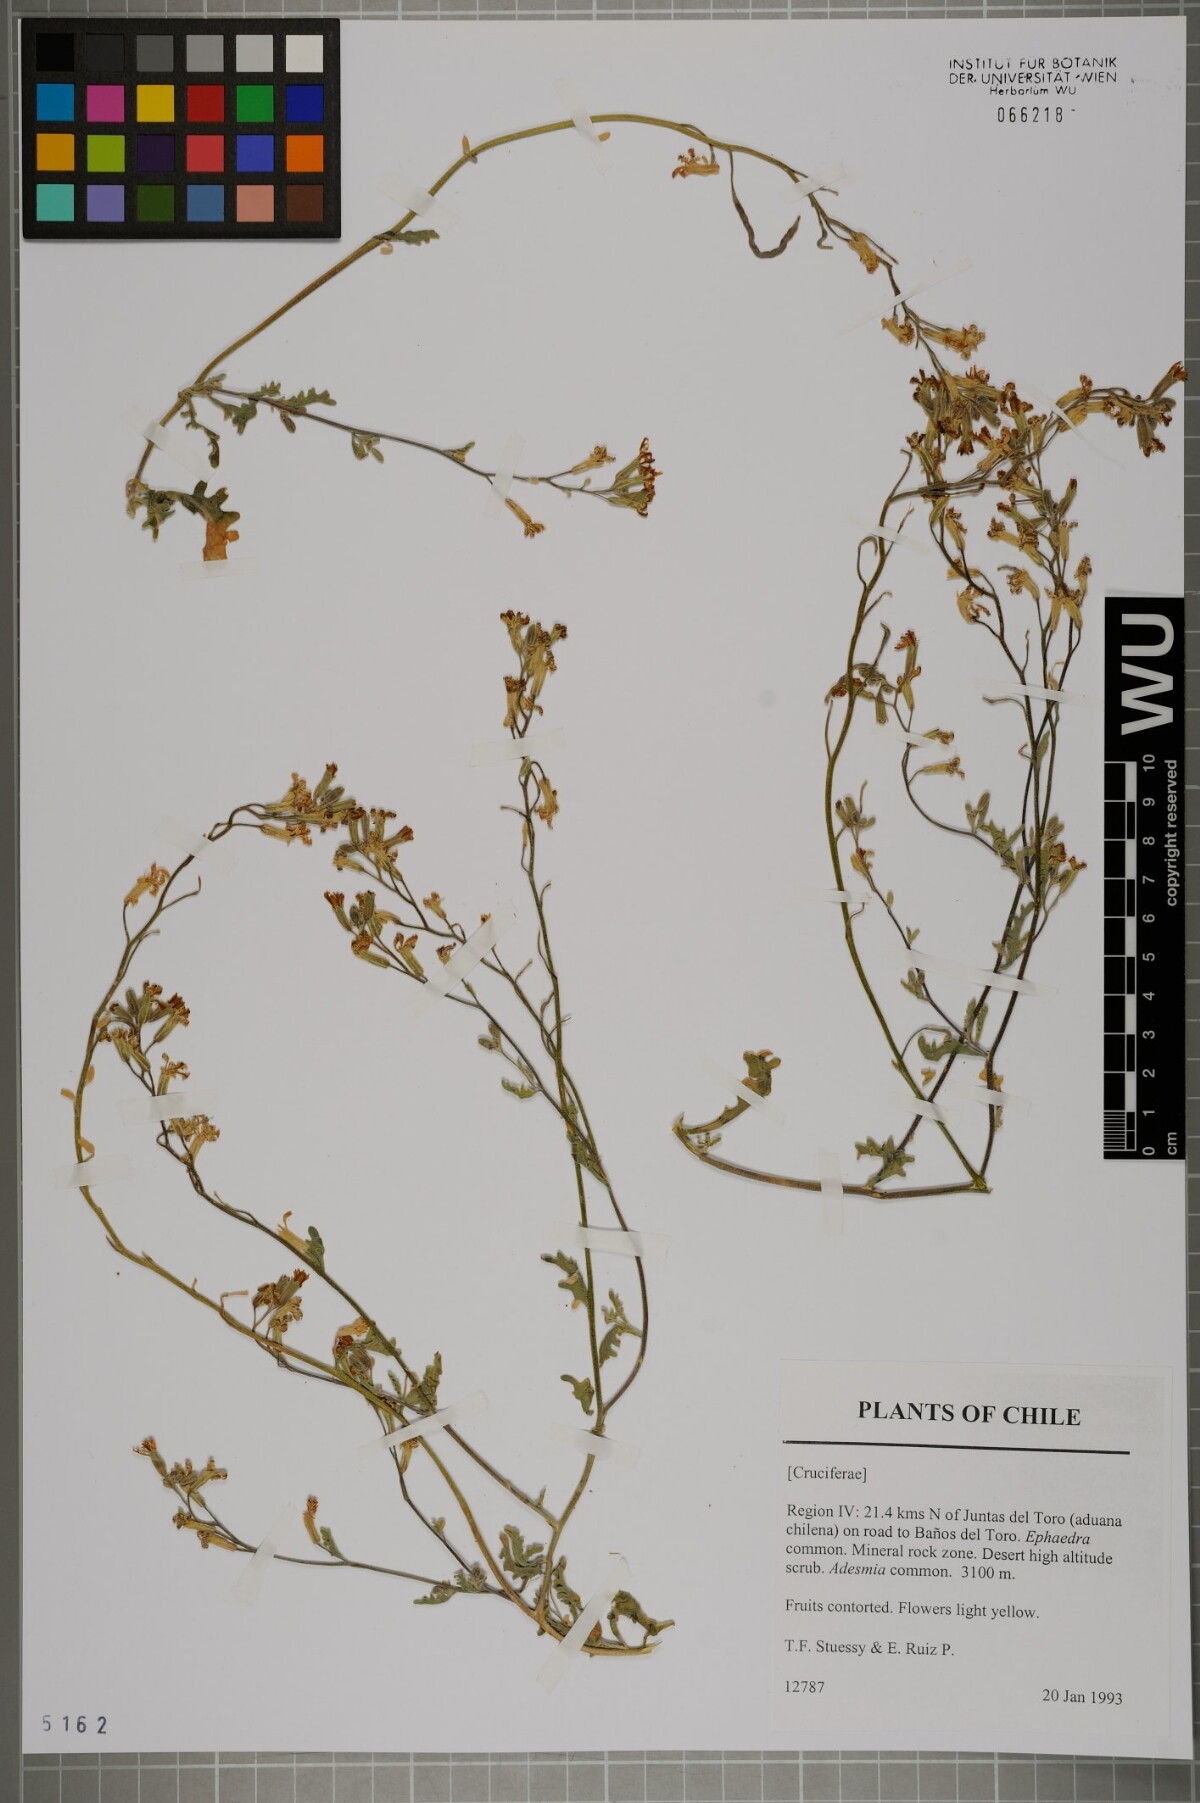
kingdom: Plantae
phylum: Tracheophyta
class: Magnoliopsida
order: Brassicales
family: Brassicaceae
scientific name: Brassicaceae
